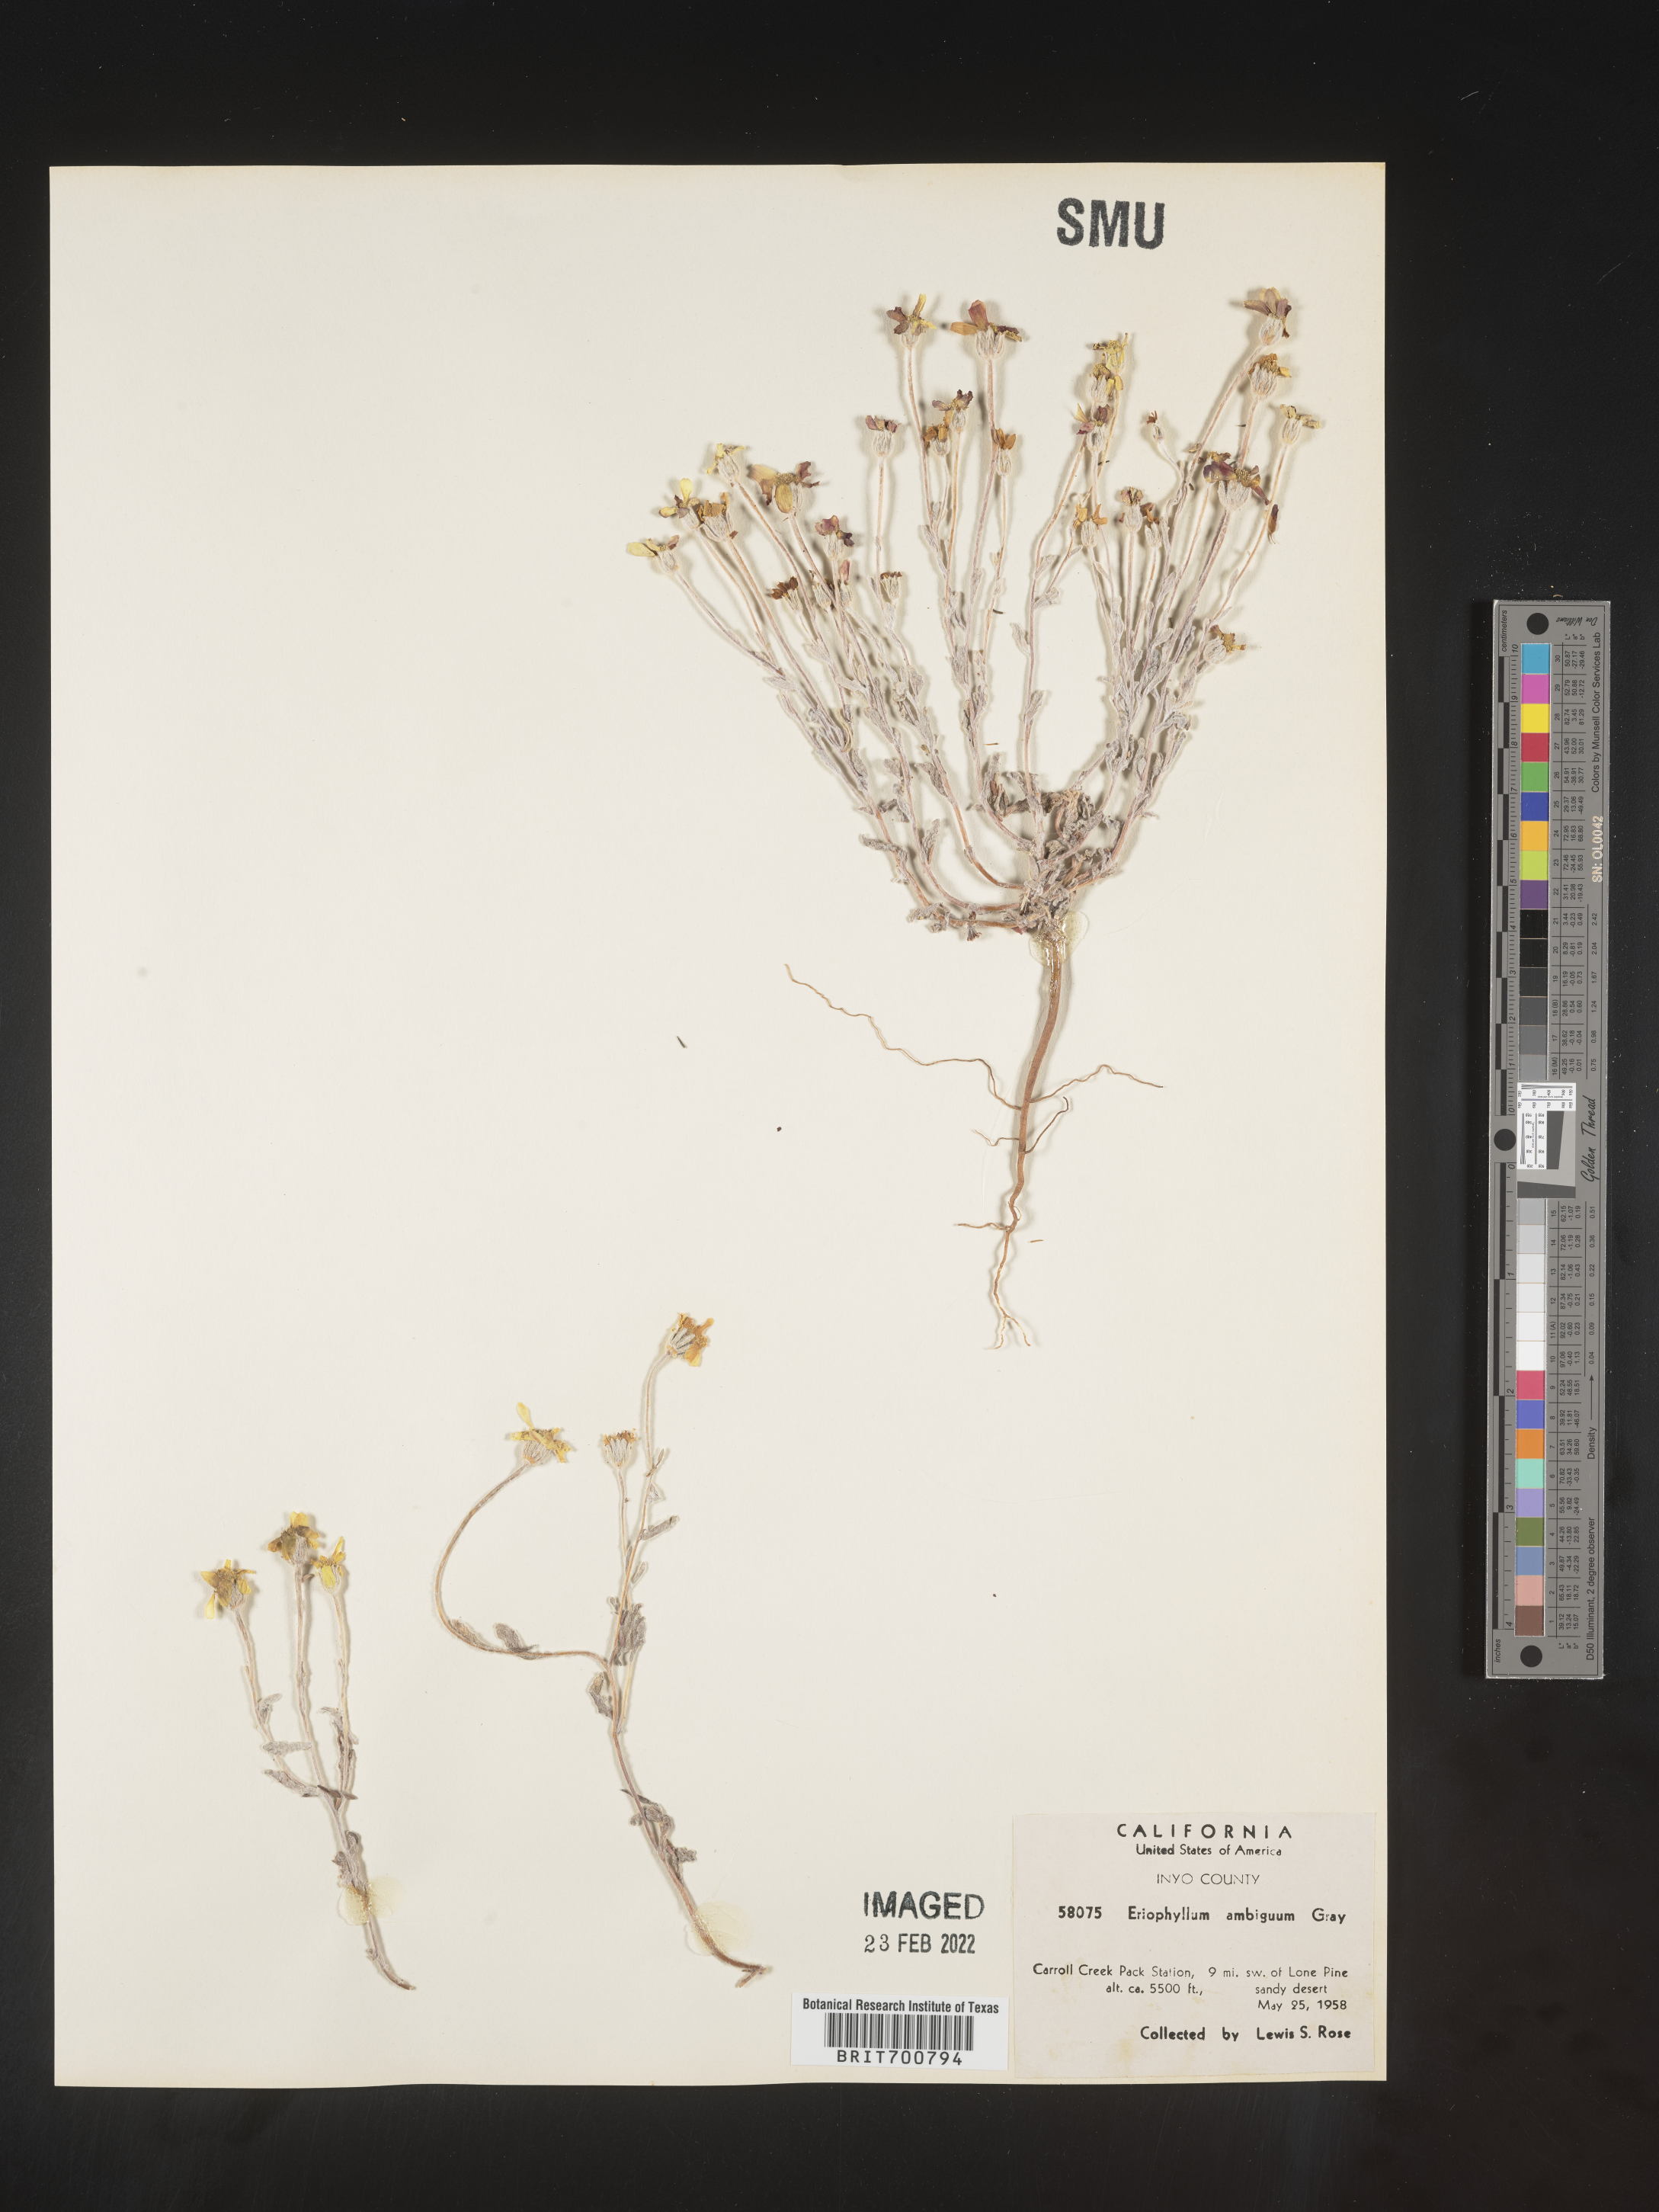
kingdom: Plantae
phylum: Tracheophyta
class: Magnoliopsida
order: Asterales
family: Asteraceae
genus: Eriophyllum
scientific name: Eriophyllum ambiguum
